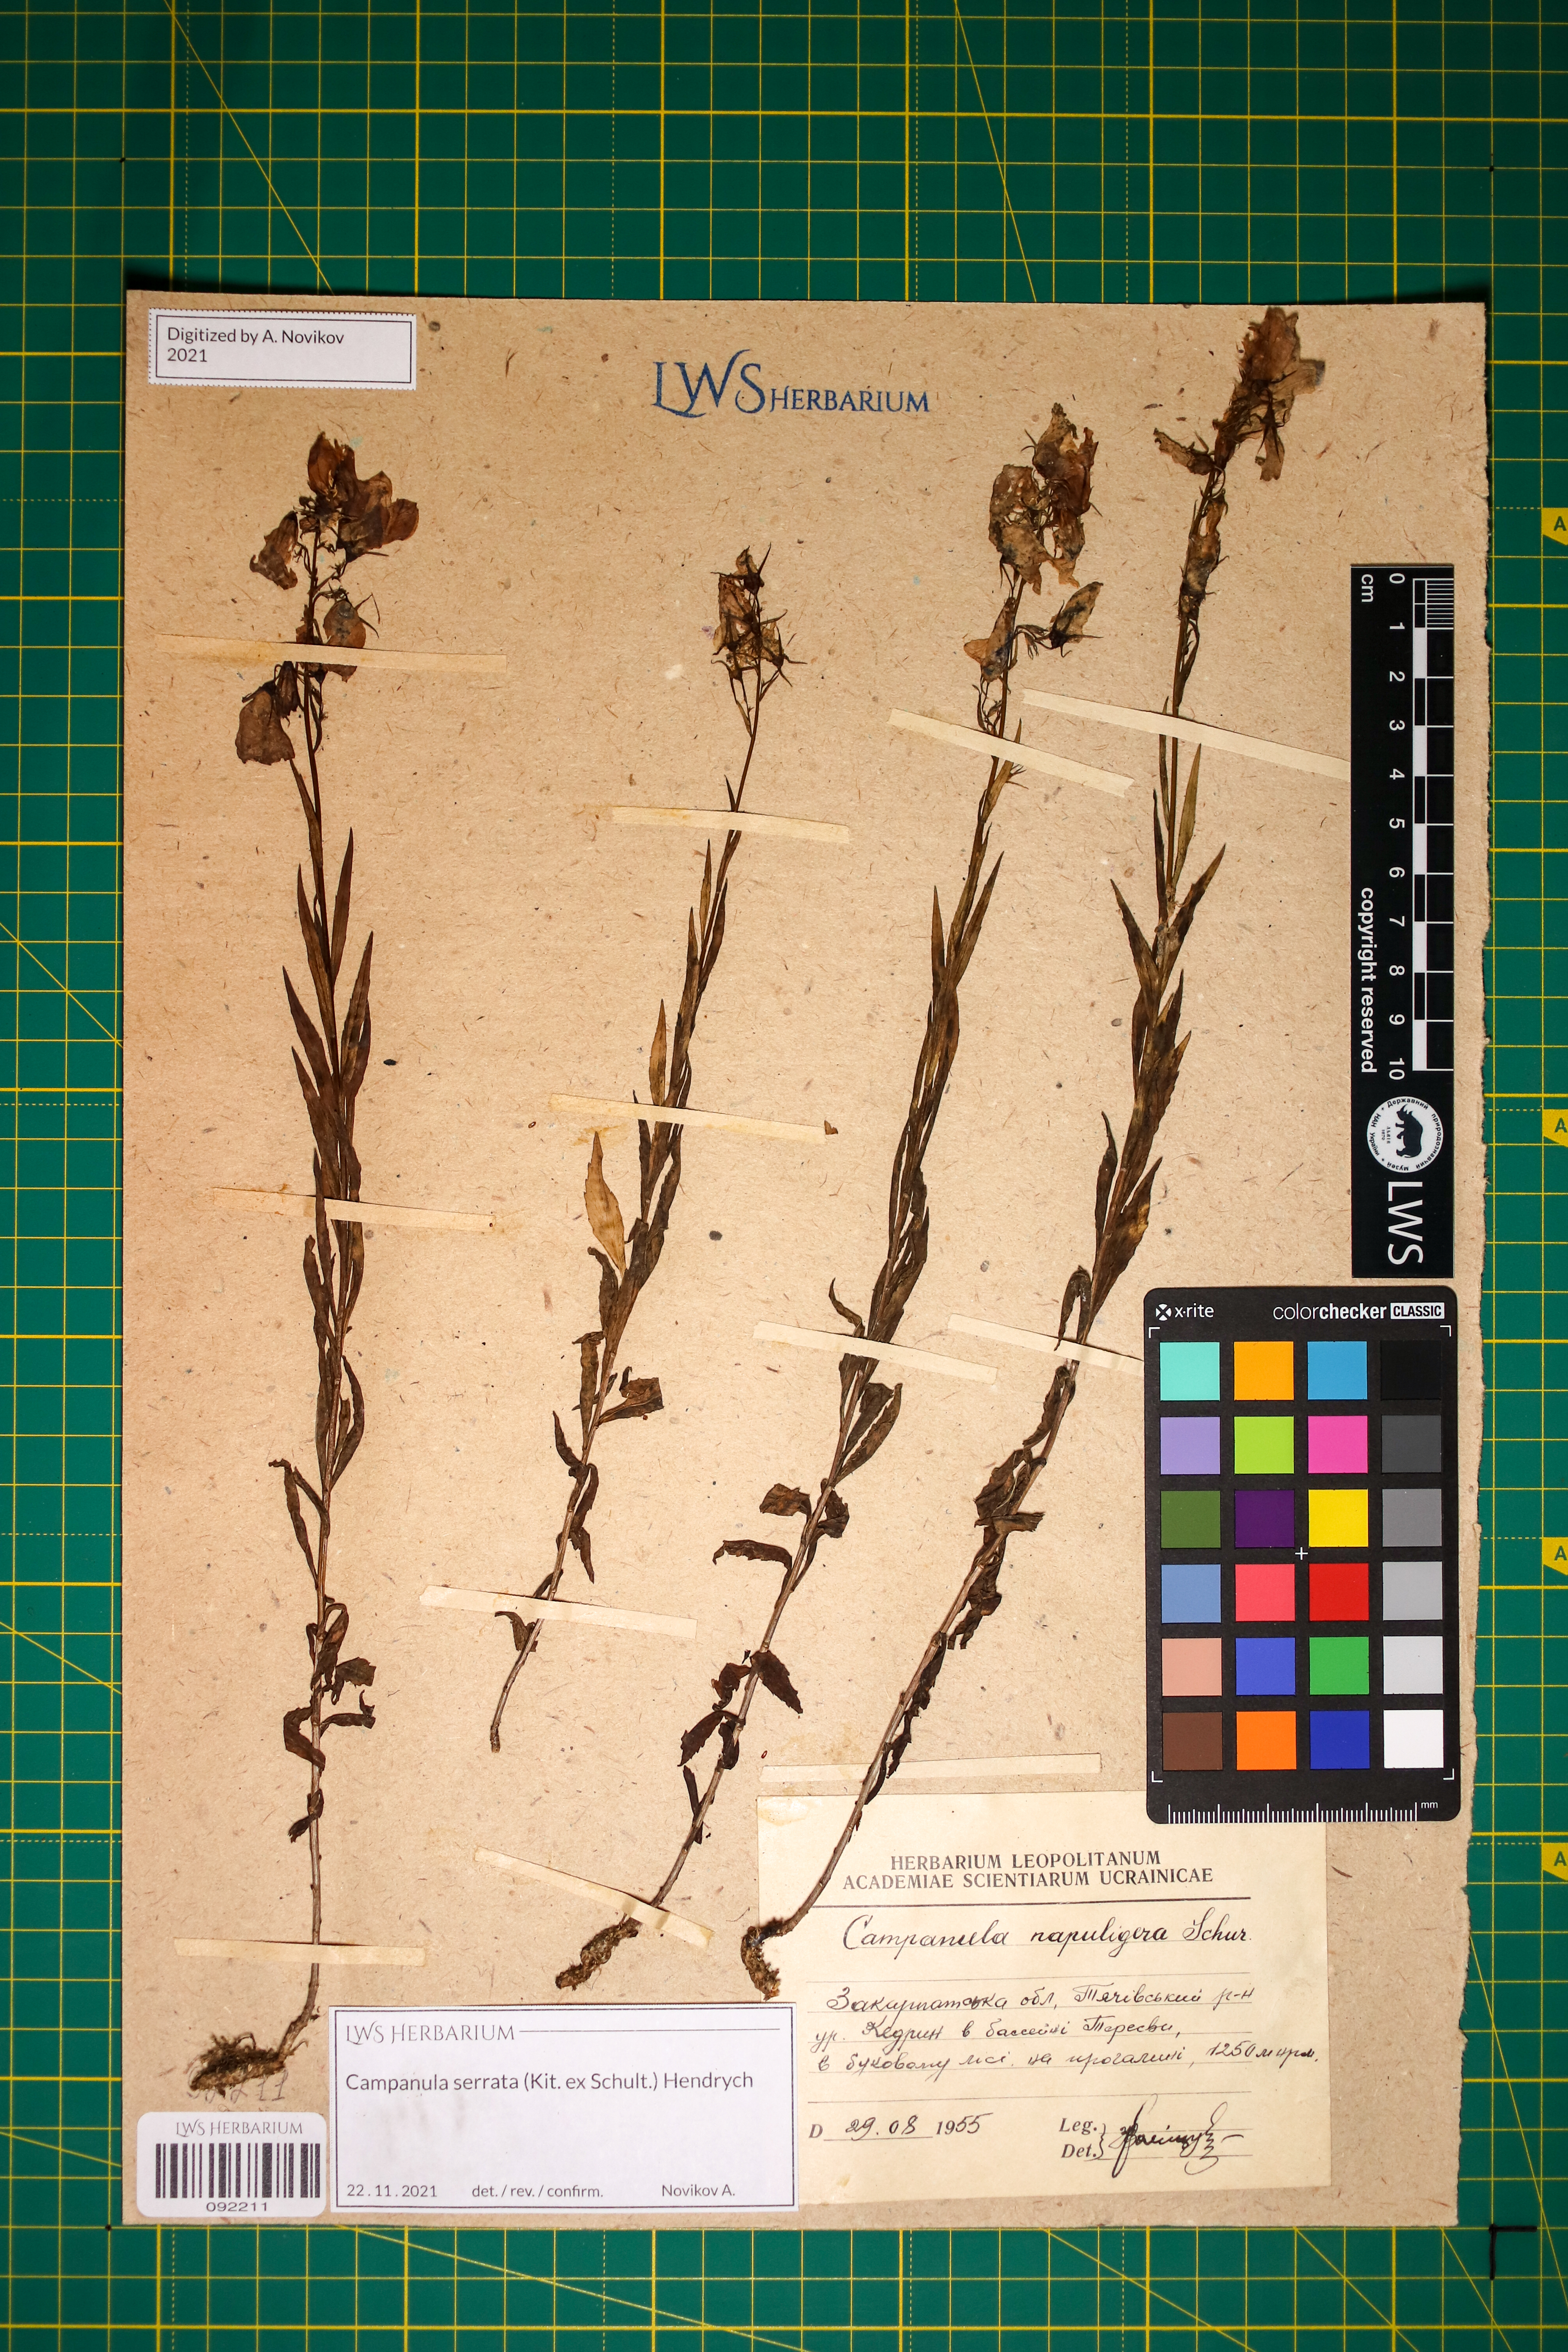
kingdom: Plantae
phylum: Tracheophyta
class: Magnoliopsida
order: Asterales
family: Campanulaceae
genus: Campanula
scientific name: Campanula serrata
